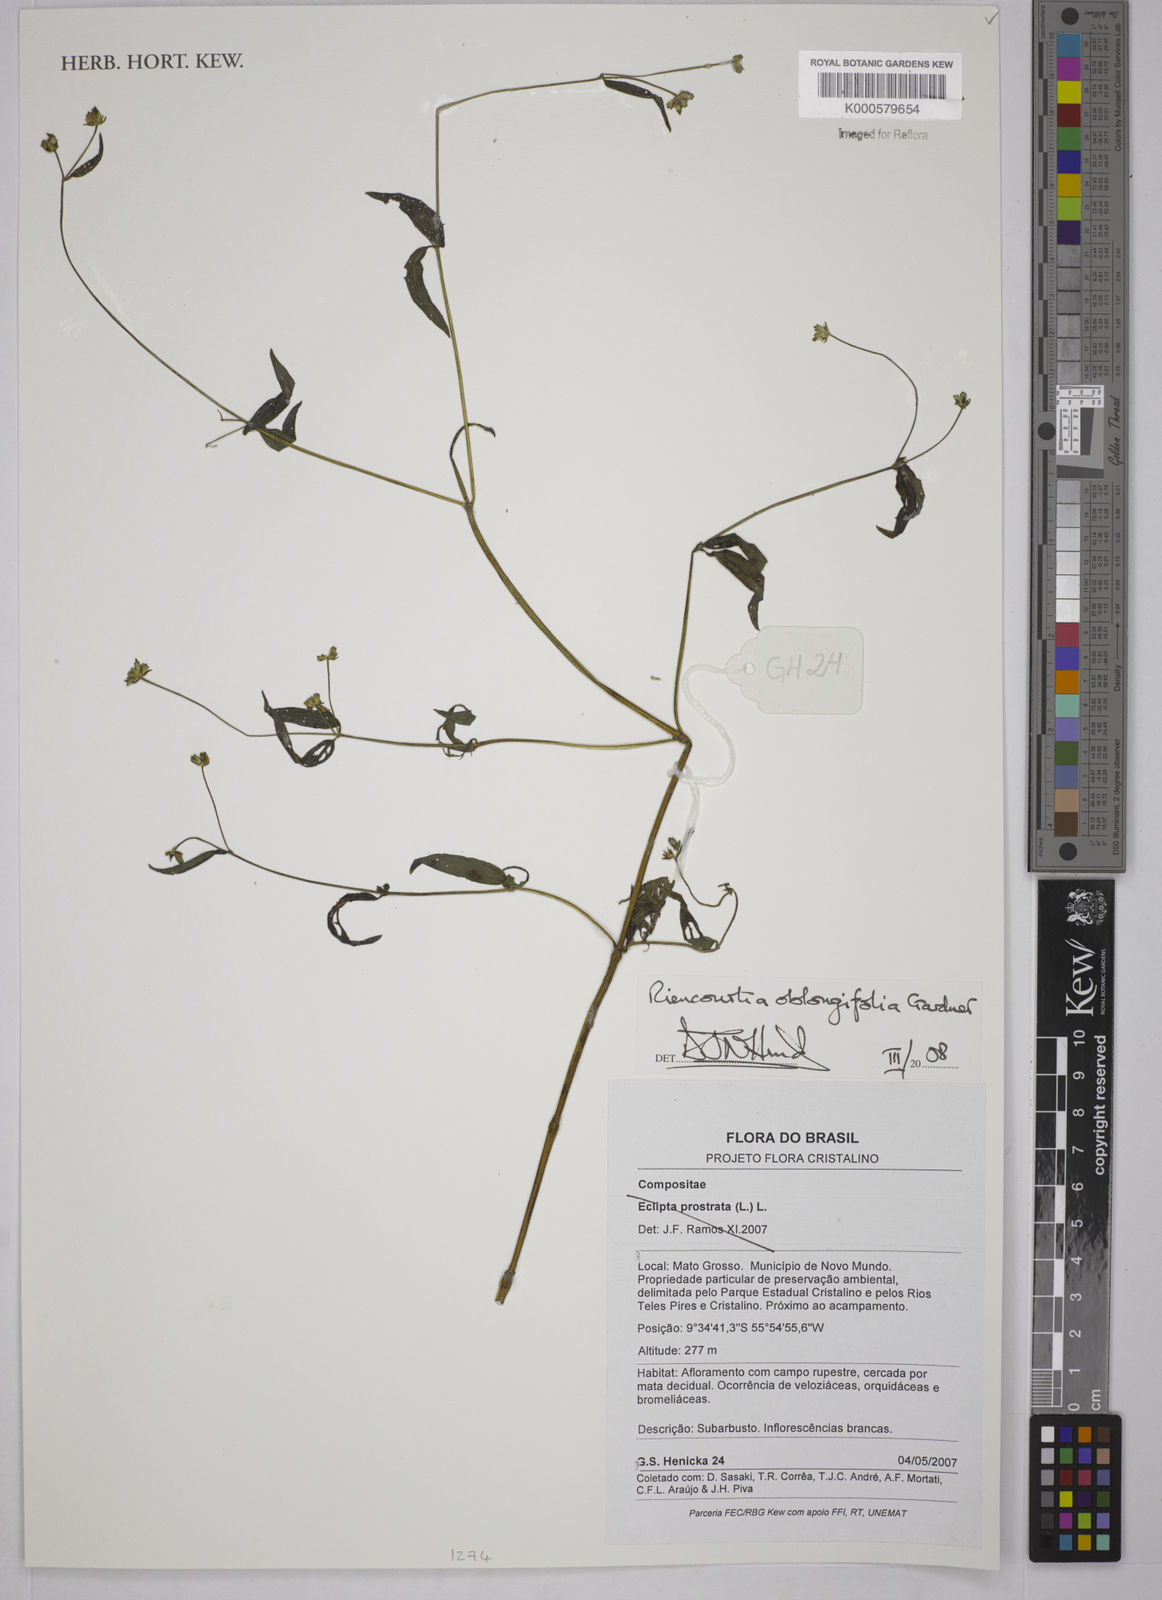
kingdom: Plantae
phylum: Tracheophyta
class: Magnoliopsida
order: Asterales
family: Asteraceae
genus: Riencourtia
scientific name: Riencourtia oblongifolia
